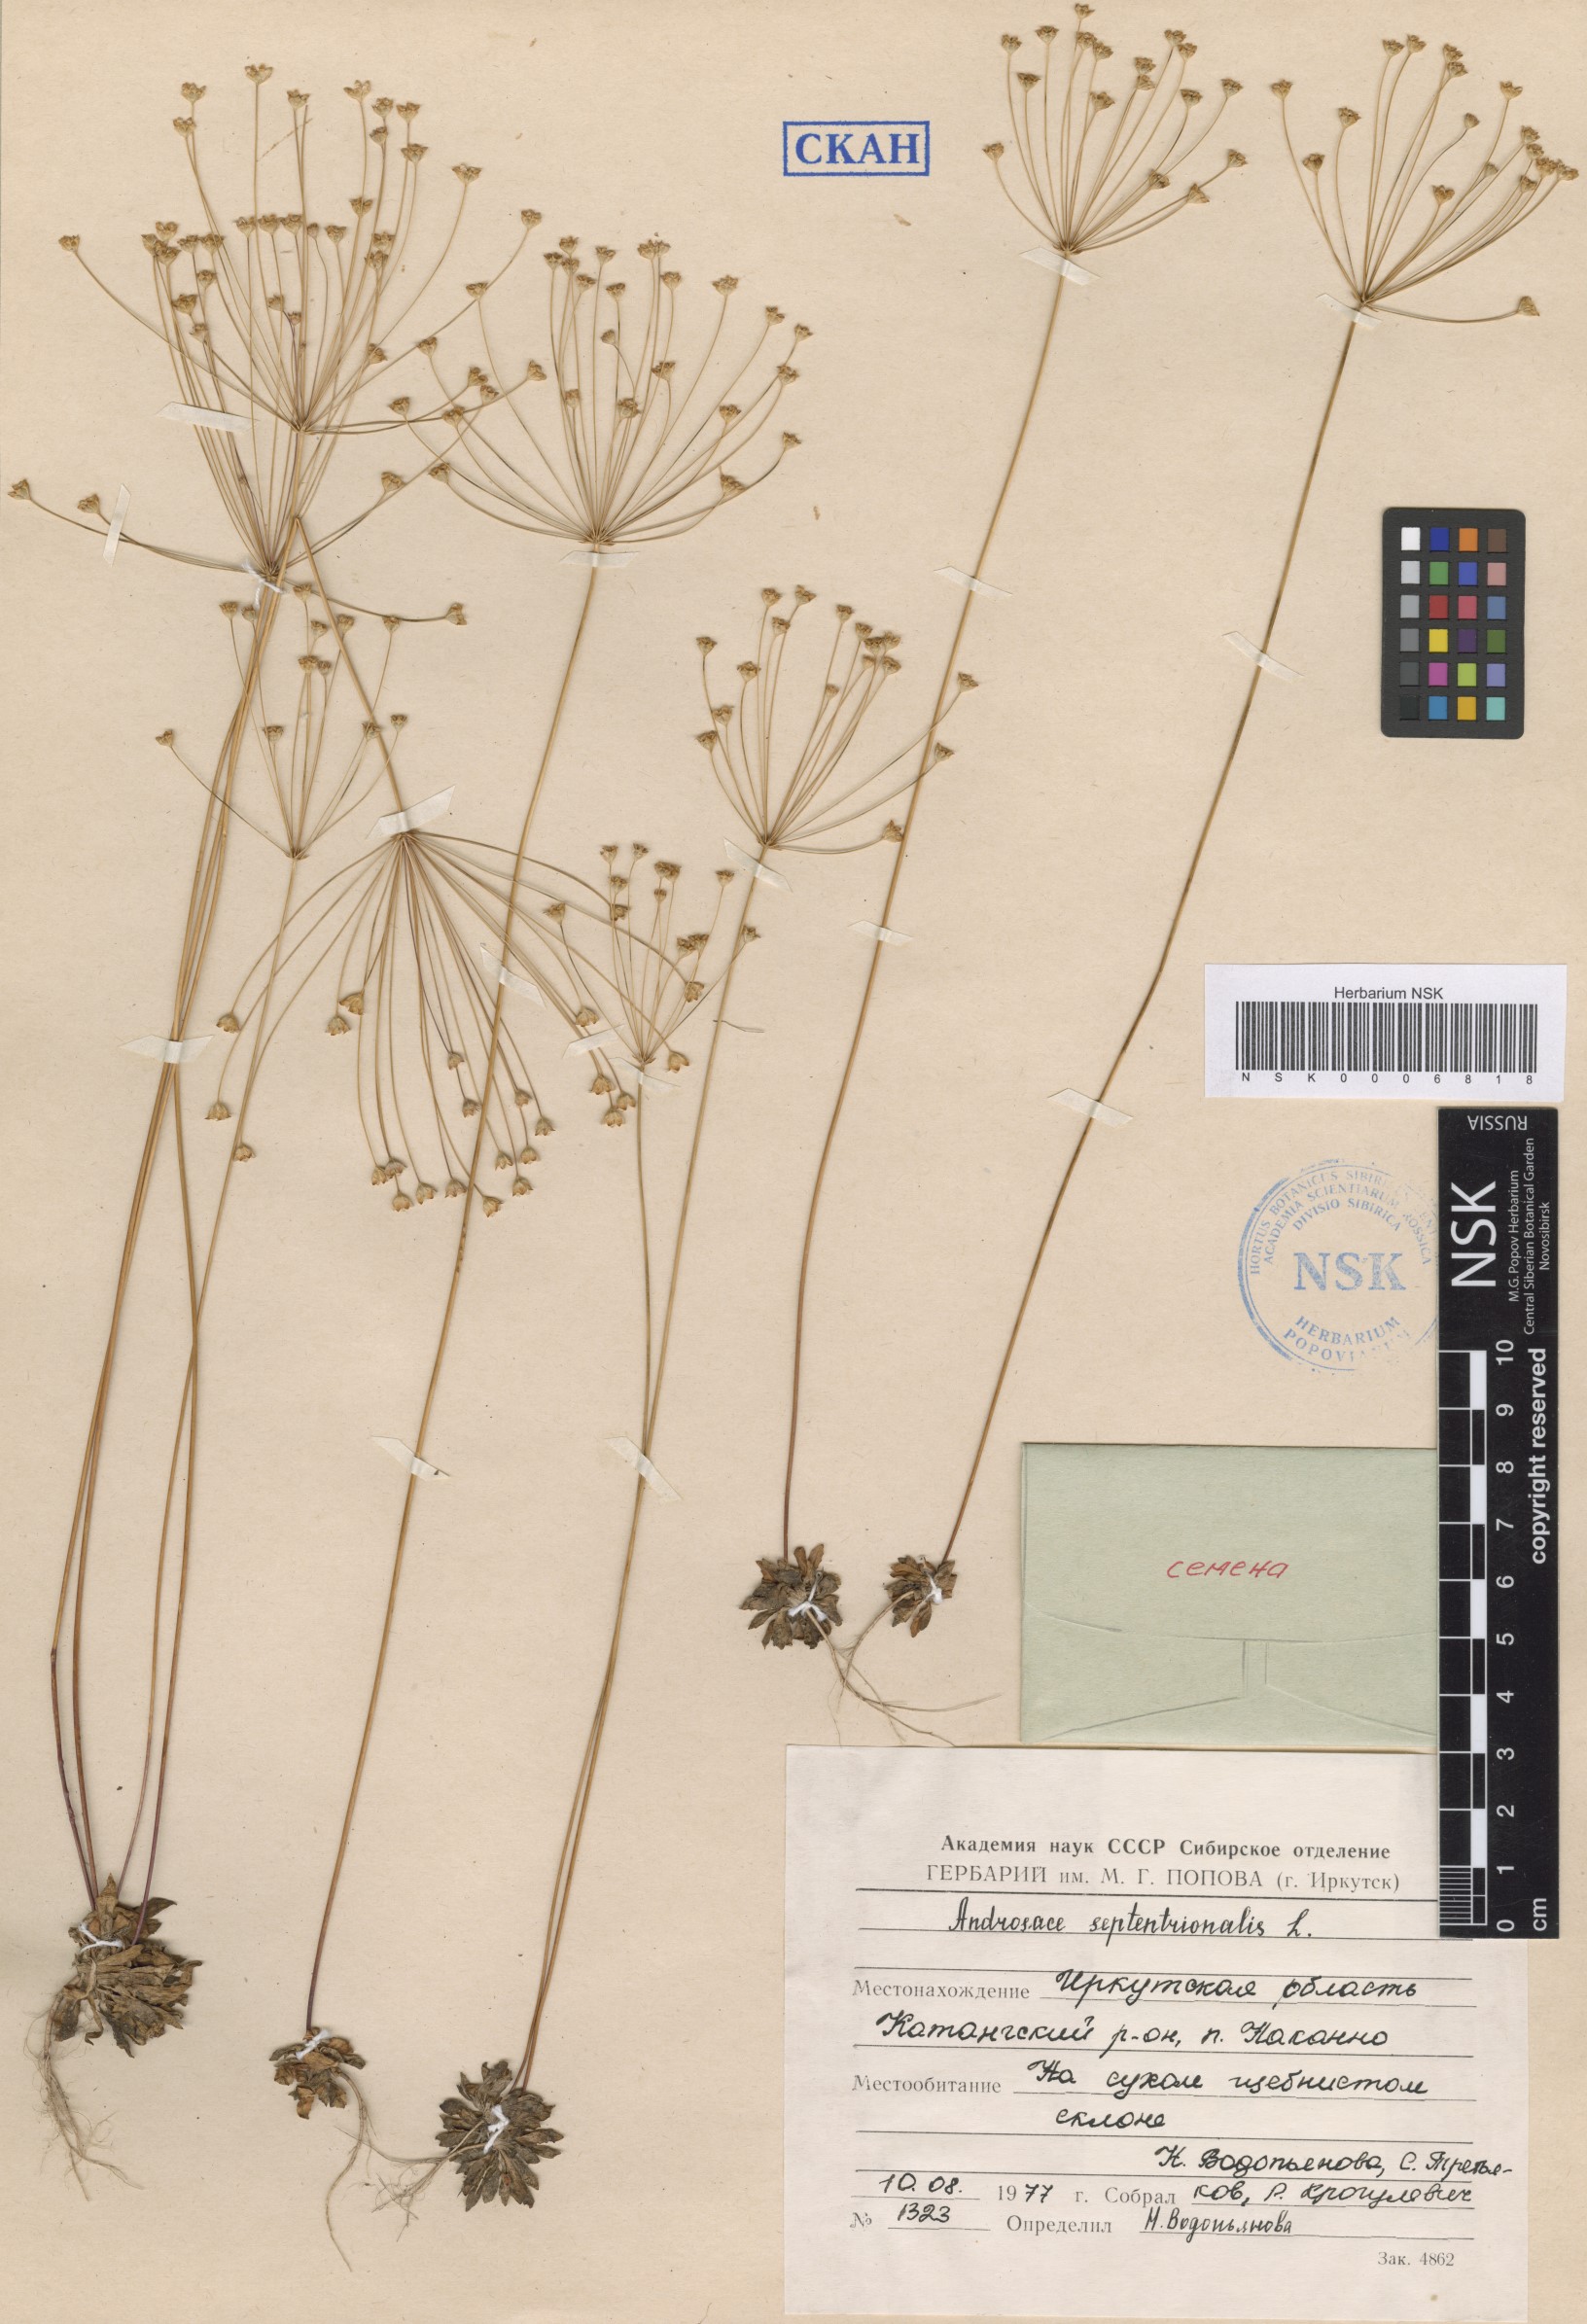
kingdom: Plantae
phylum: Tracheophyta
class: Magnoliopsida
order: Ericales
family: Primulaceae
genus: Androsace
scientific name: Androsace septentrionalis
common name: Hairy northern fairy-candelabra
